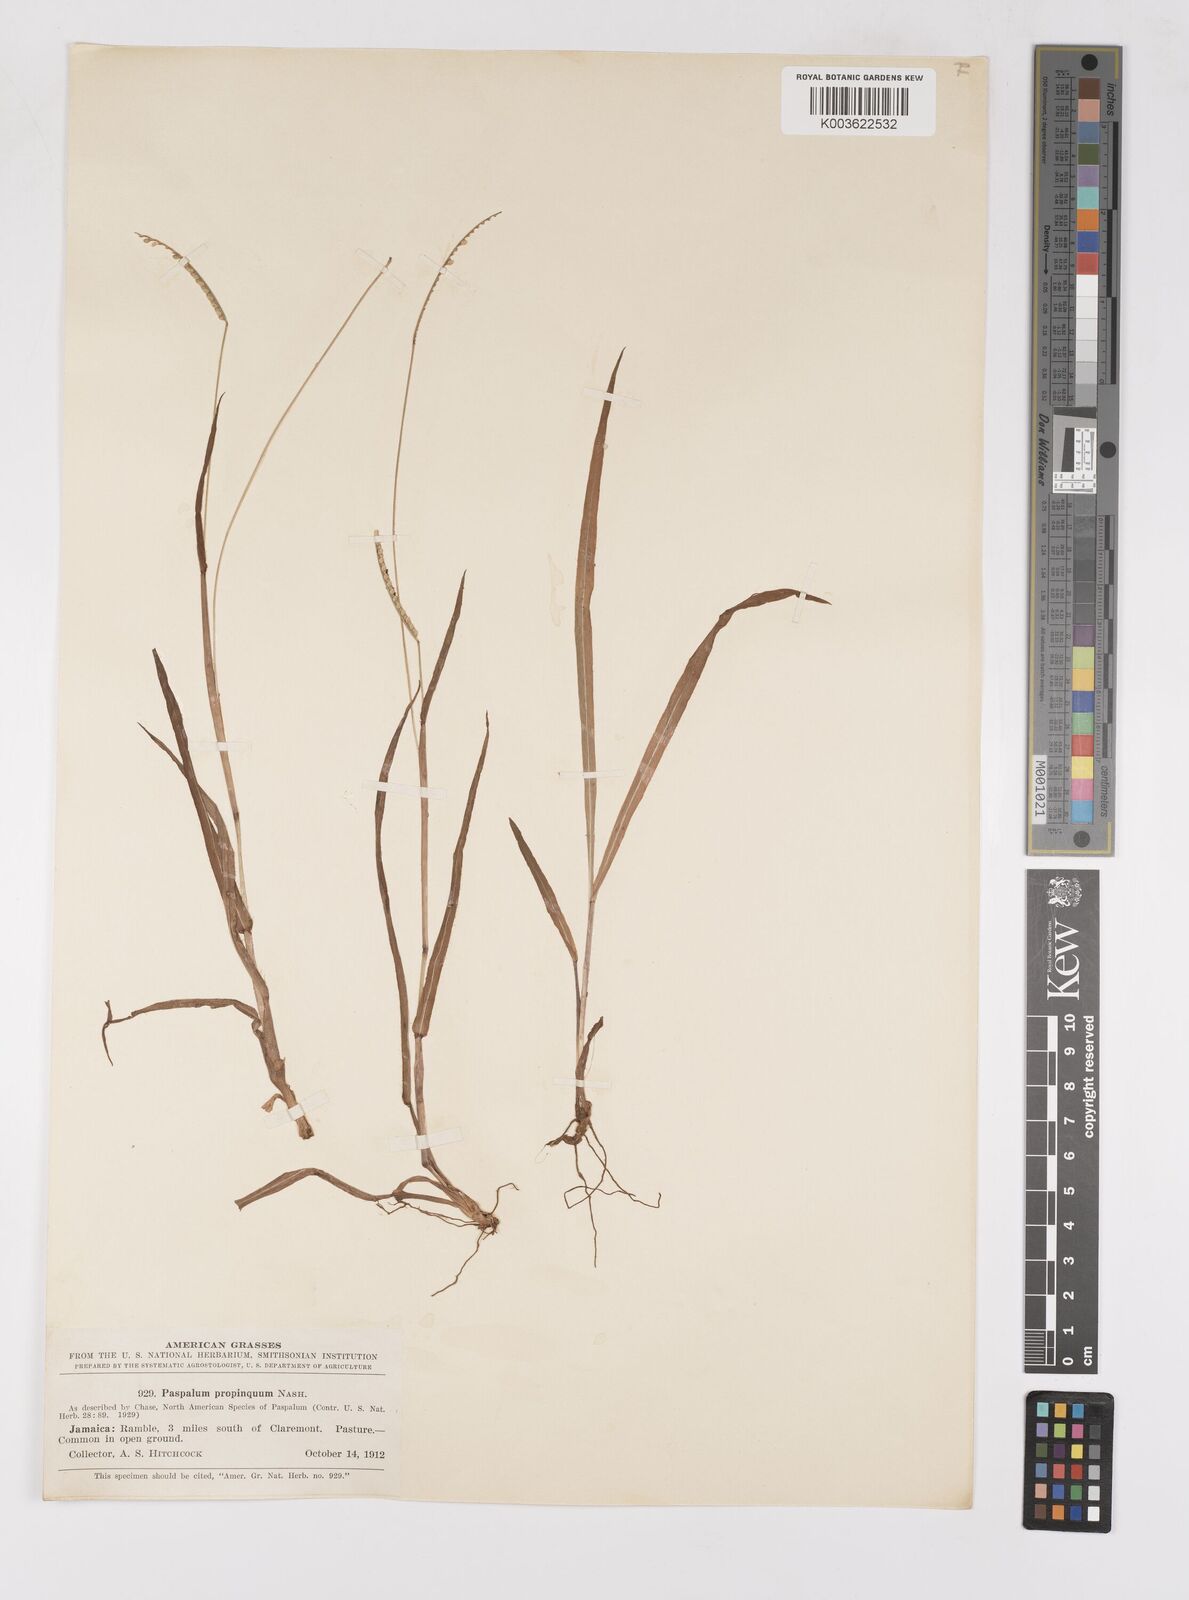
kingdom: Plantae
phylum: Tracheophyta
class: Liliopsida
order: Poales
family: Poaceae
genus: Paspalum
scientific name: Paspalum
